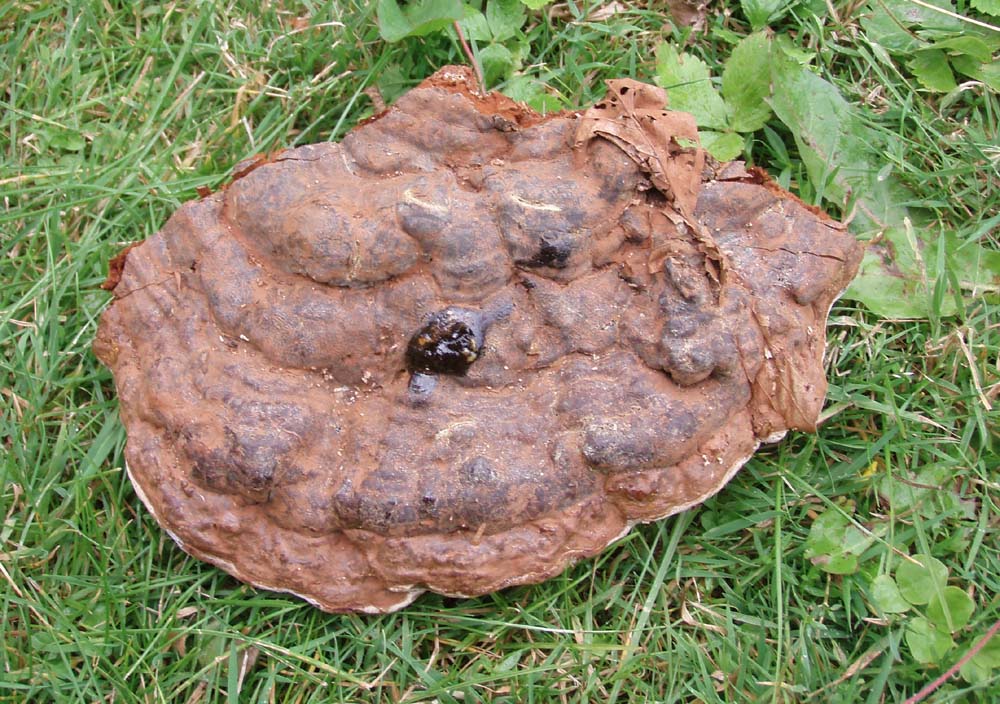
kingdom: Fungi
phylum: Basidiomycota
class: Agaricomycetes
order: Polyporales
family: Polyporaceae
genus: Ganoderma
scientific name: Ganoderma pfeifferi
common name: kobberrød lakporesvamp
